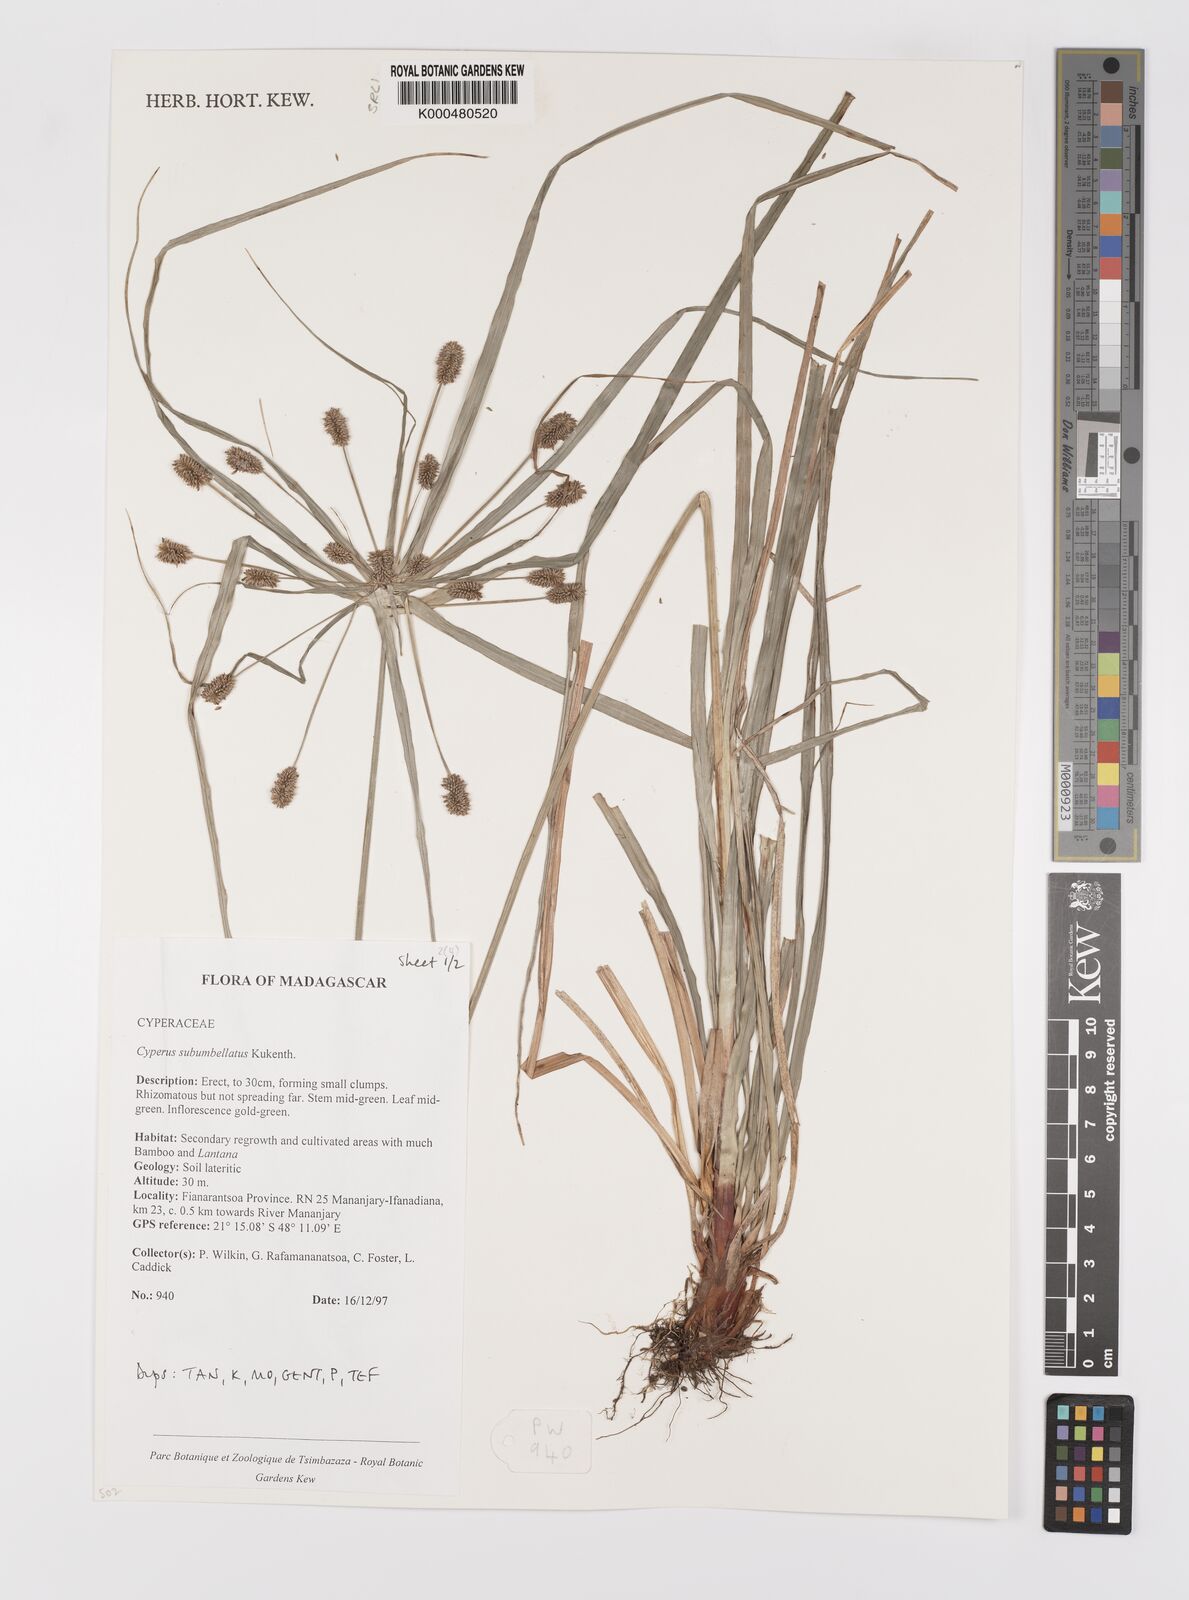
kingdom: Plantae
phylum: Tracheophyta
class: Liliopsida
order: Poales
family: Cyperaceae
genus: Cyperus
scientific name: Cyperus cyperoides
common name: Pacific island flat sedge
